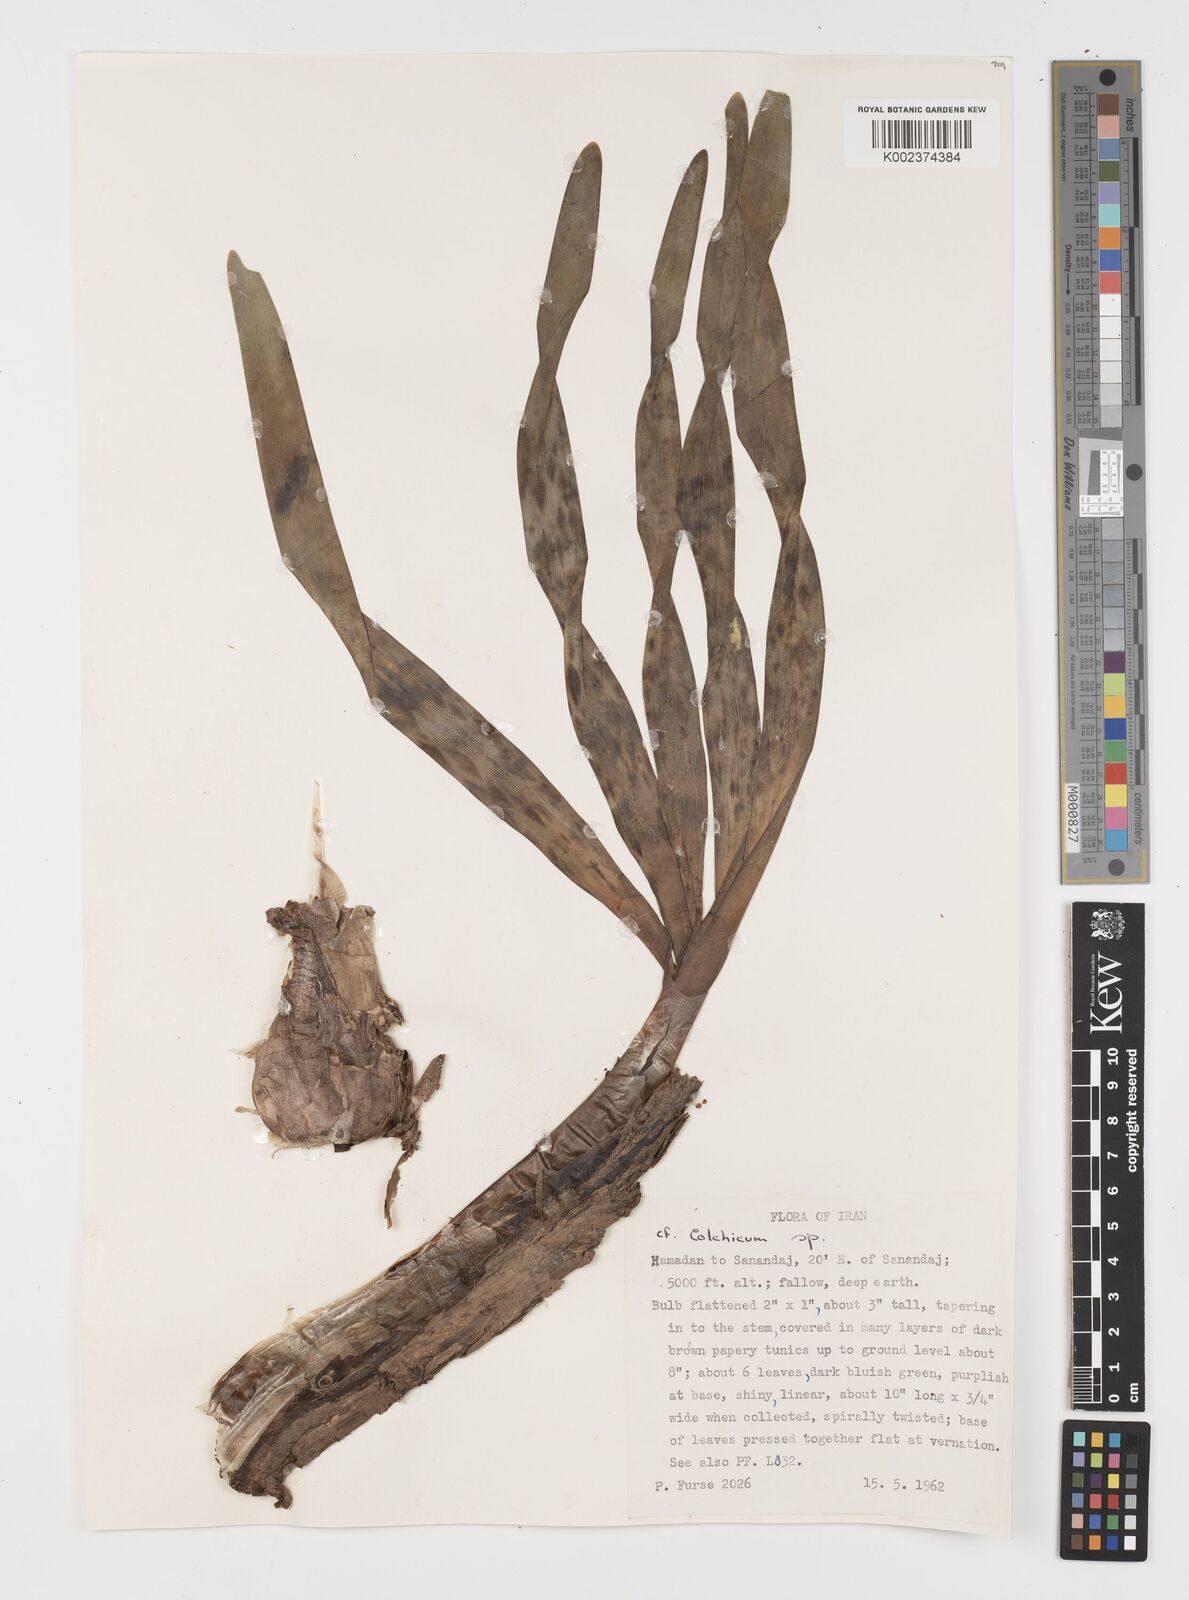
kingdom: Plantae
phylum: Tracheophyta
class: Liliopsida
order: Liliales
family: Colchicaceae
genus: Colchicum
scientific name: Colchicum
